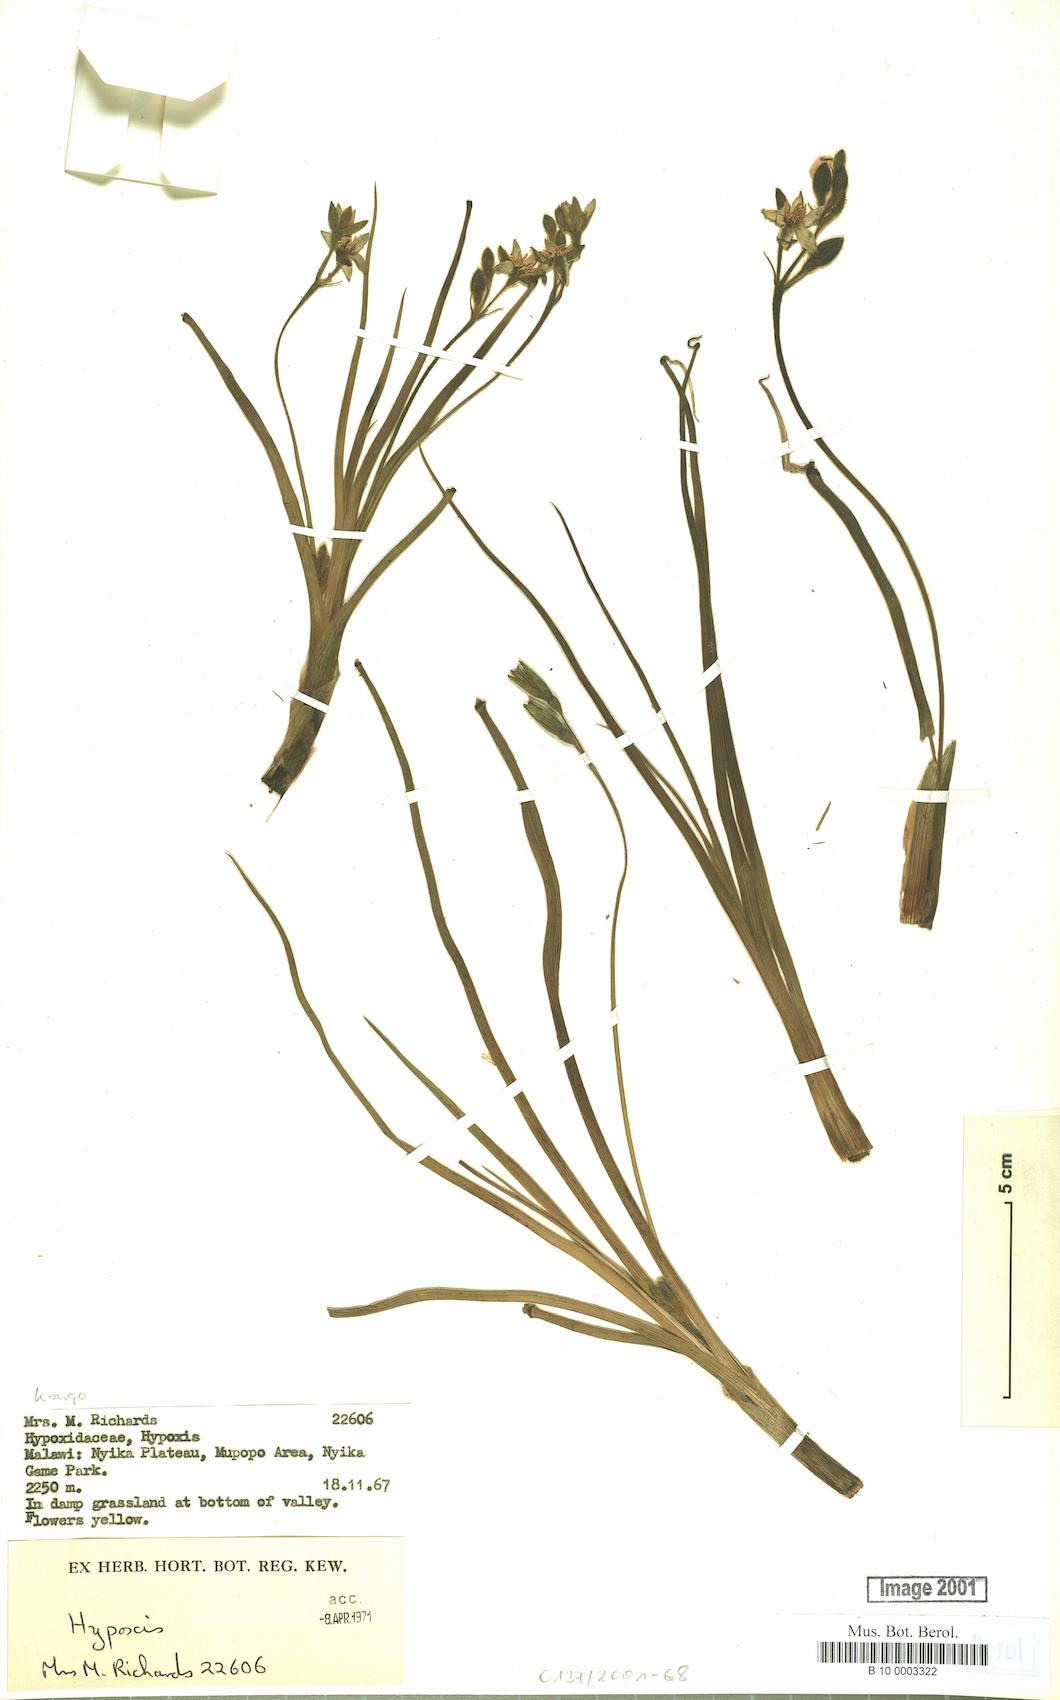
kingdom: Plantae
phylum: Tracheophyta
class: Liliopsida
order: Asparagales
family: Hypoxidaceae
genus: Hypoxis
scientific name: Hypoxis
